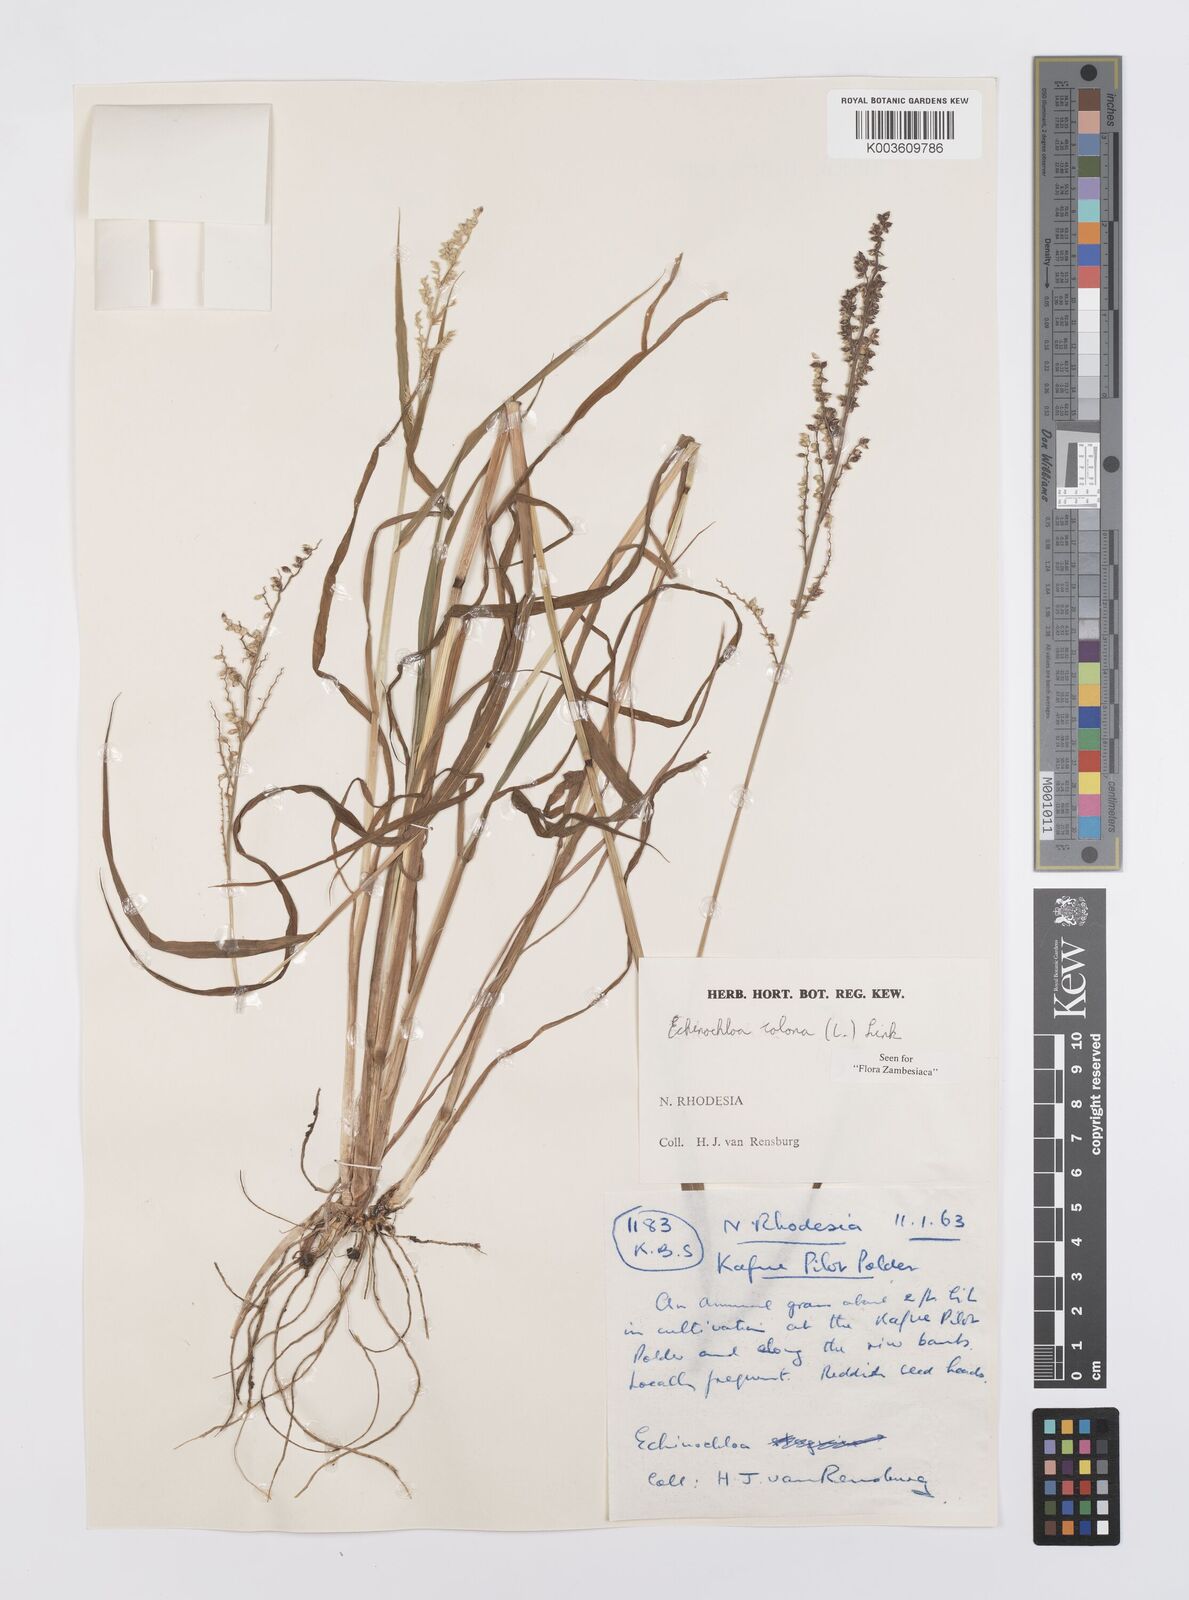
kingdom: Plantae
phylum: Tracheophyta
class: Liliopsida
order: Poales
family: Poaceae
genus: Echinochloa
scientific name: Echinochloa colonum
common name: Jungle rice
